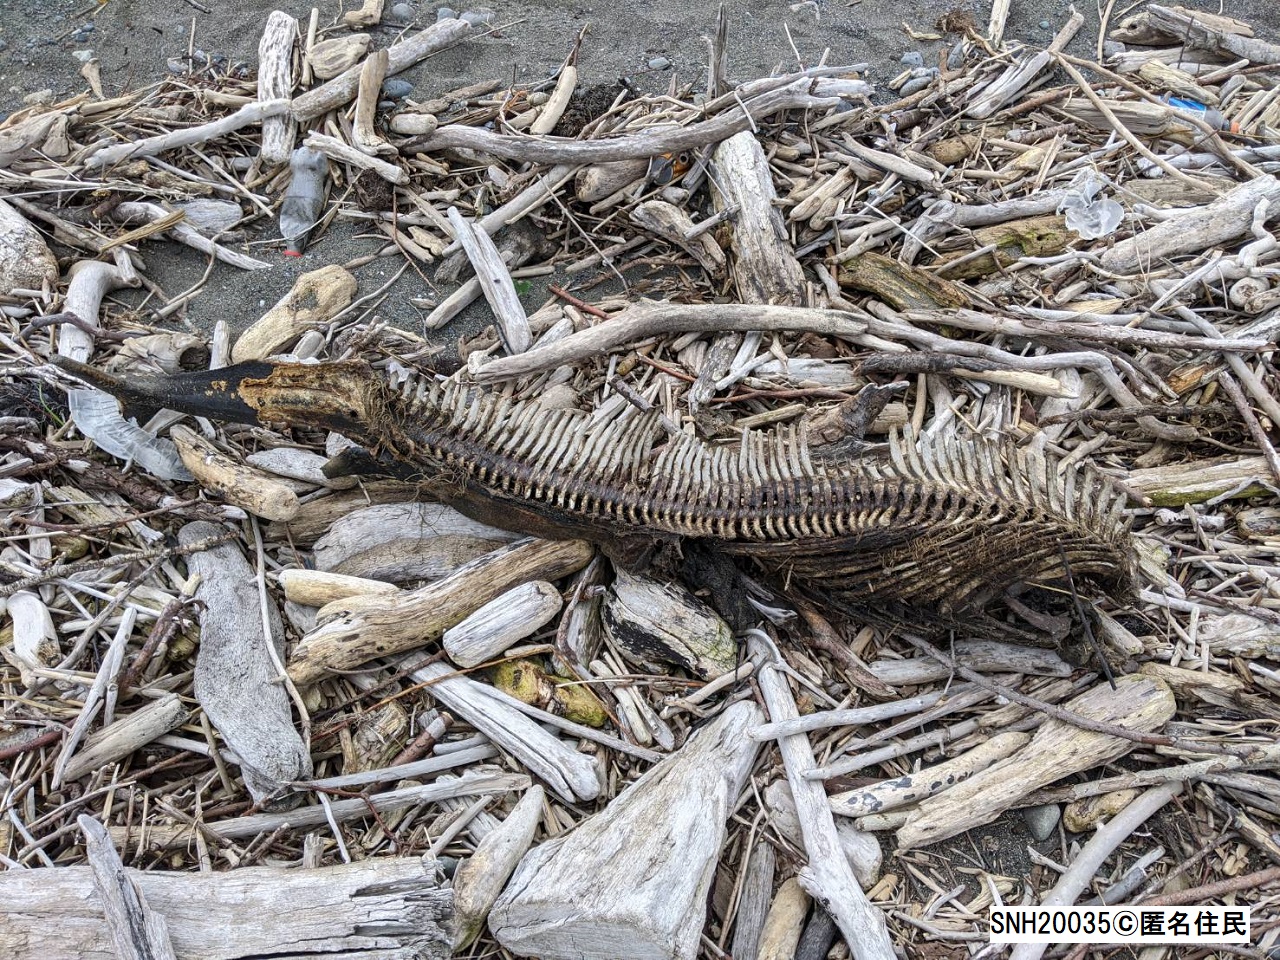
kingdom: Animalia
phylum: Chordata
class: Mammalia
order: Cetacea
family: Phocoenidae
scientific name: Phocoenidae
